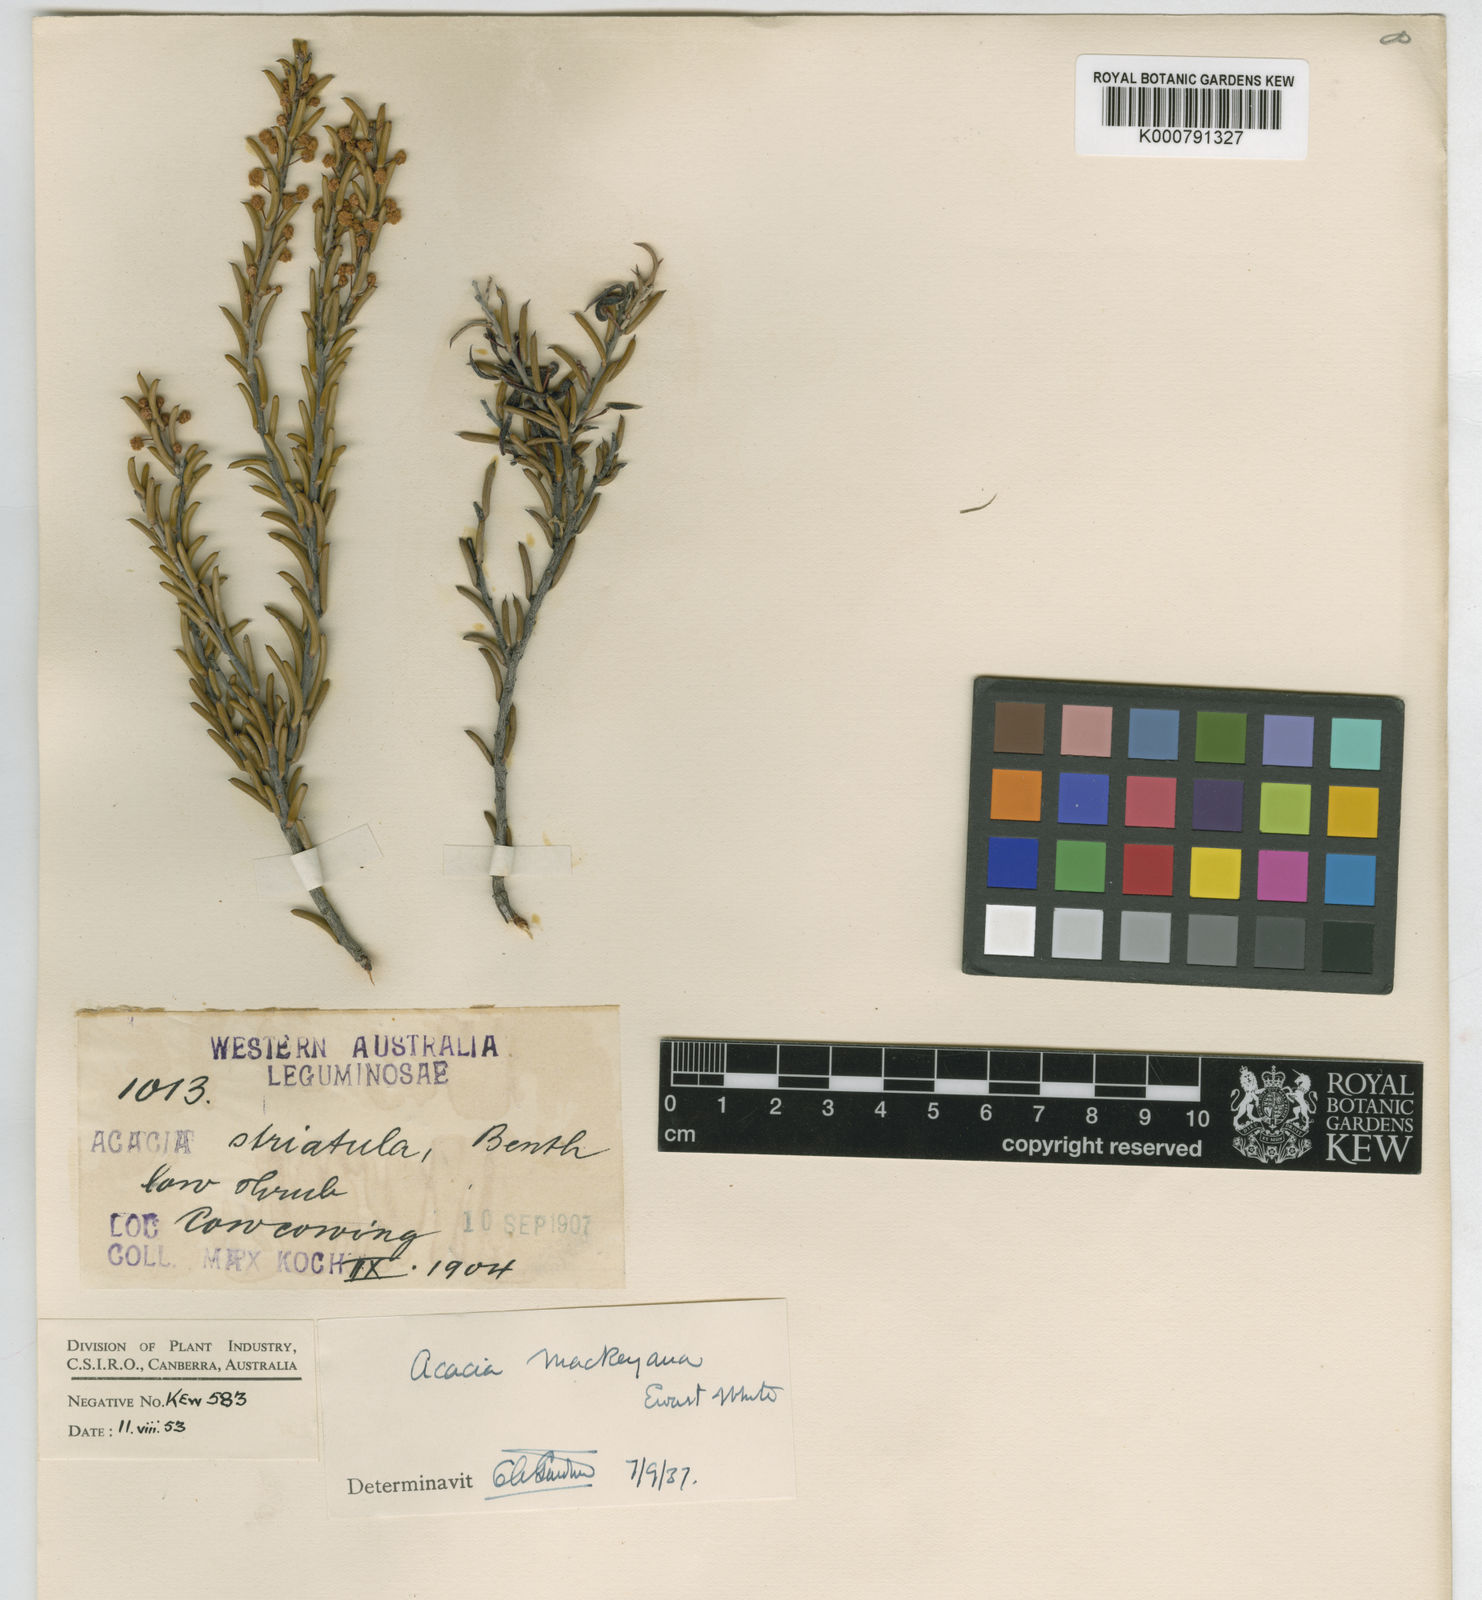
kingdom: Plantae
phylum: Tracheophyta
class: Magnoliopsida
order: Fabales
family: Fabaceae
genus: Acacia
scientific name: Acacia mackeyana
